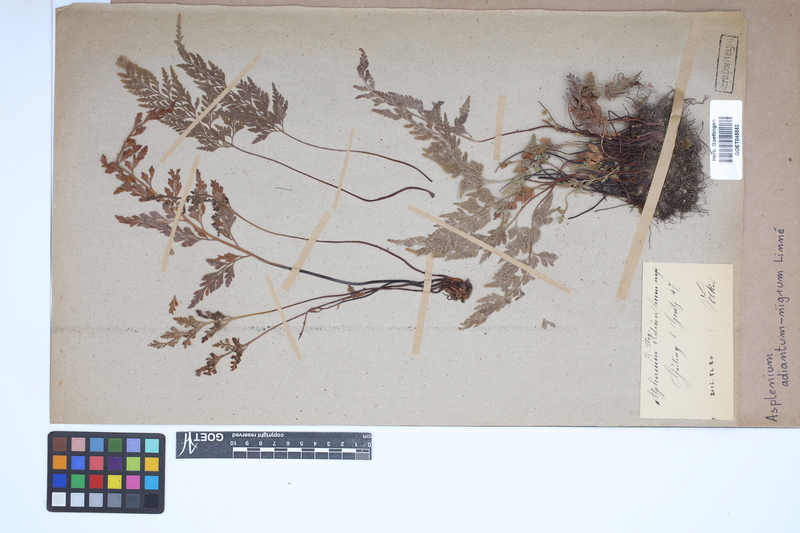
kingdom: Plantae
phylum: Tracheophyta
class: Polypodiopsida
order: Polypodiales
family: Aspleniaceae
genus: Asplenium
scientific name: Asplenium adiantum-nigrum
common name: Black spleenwort
